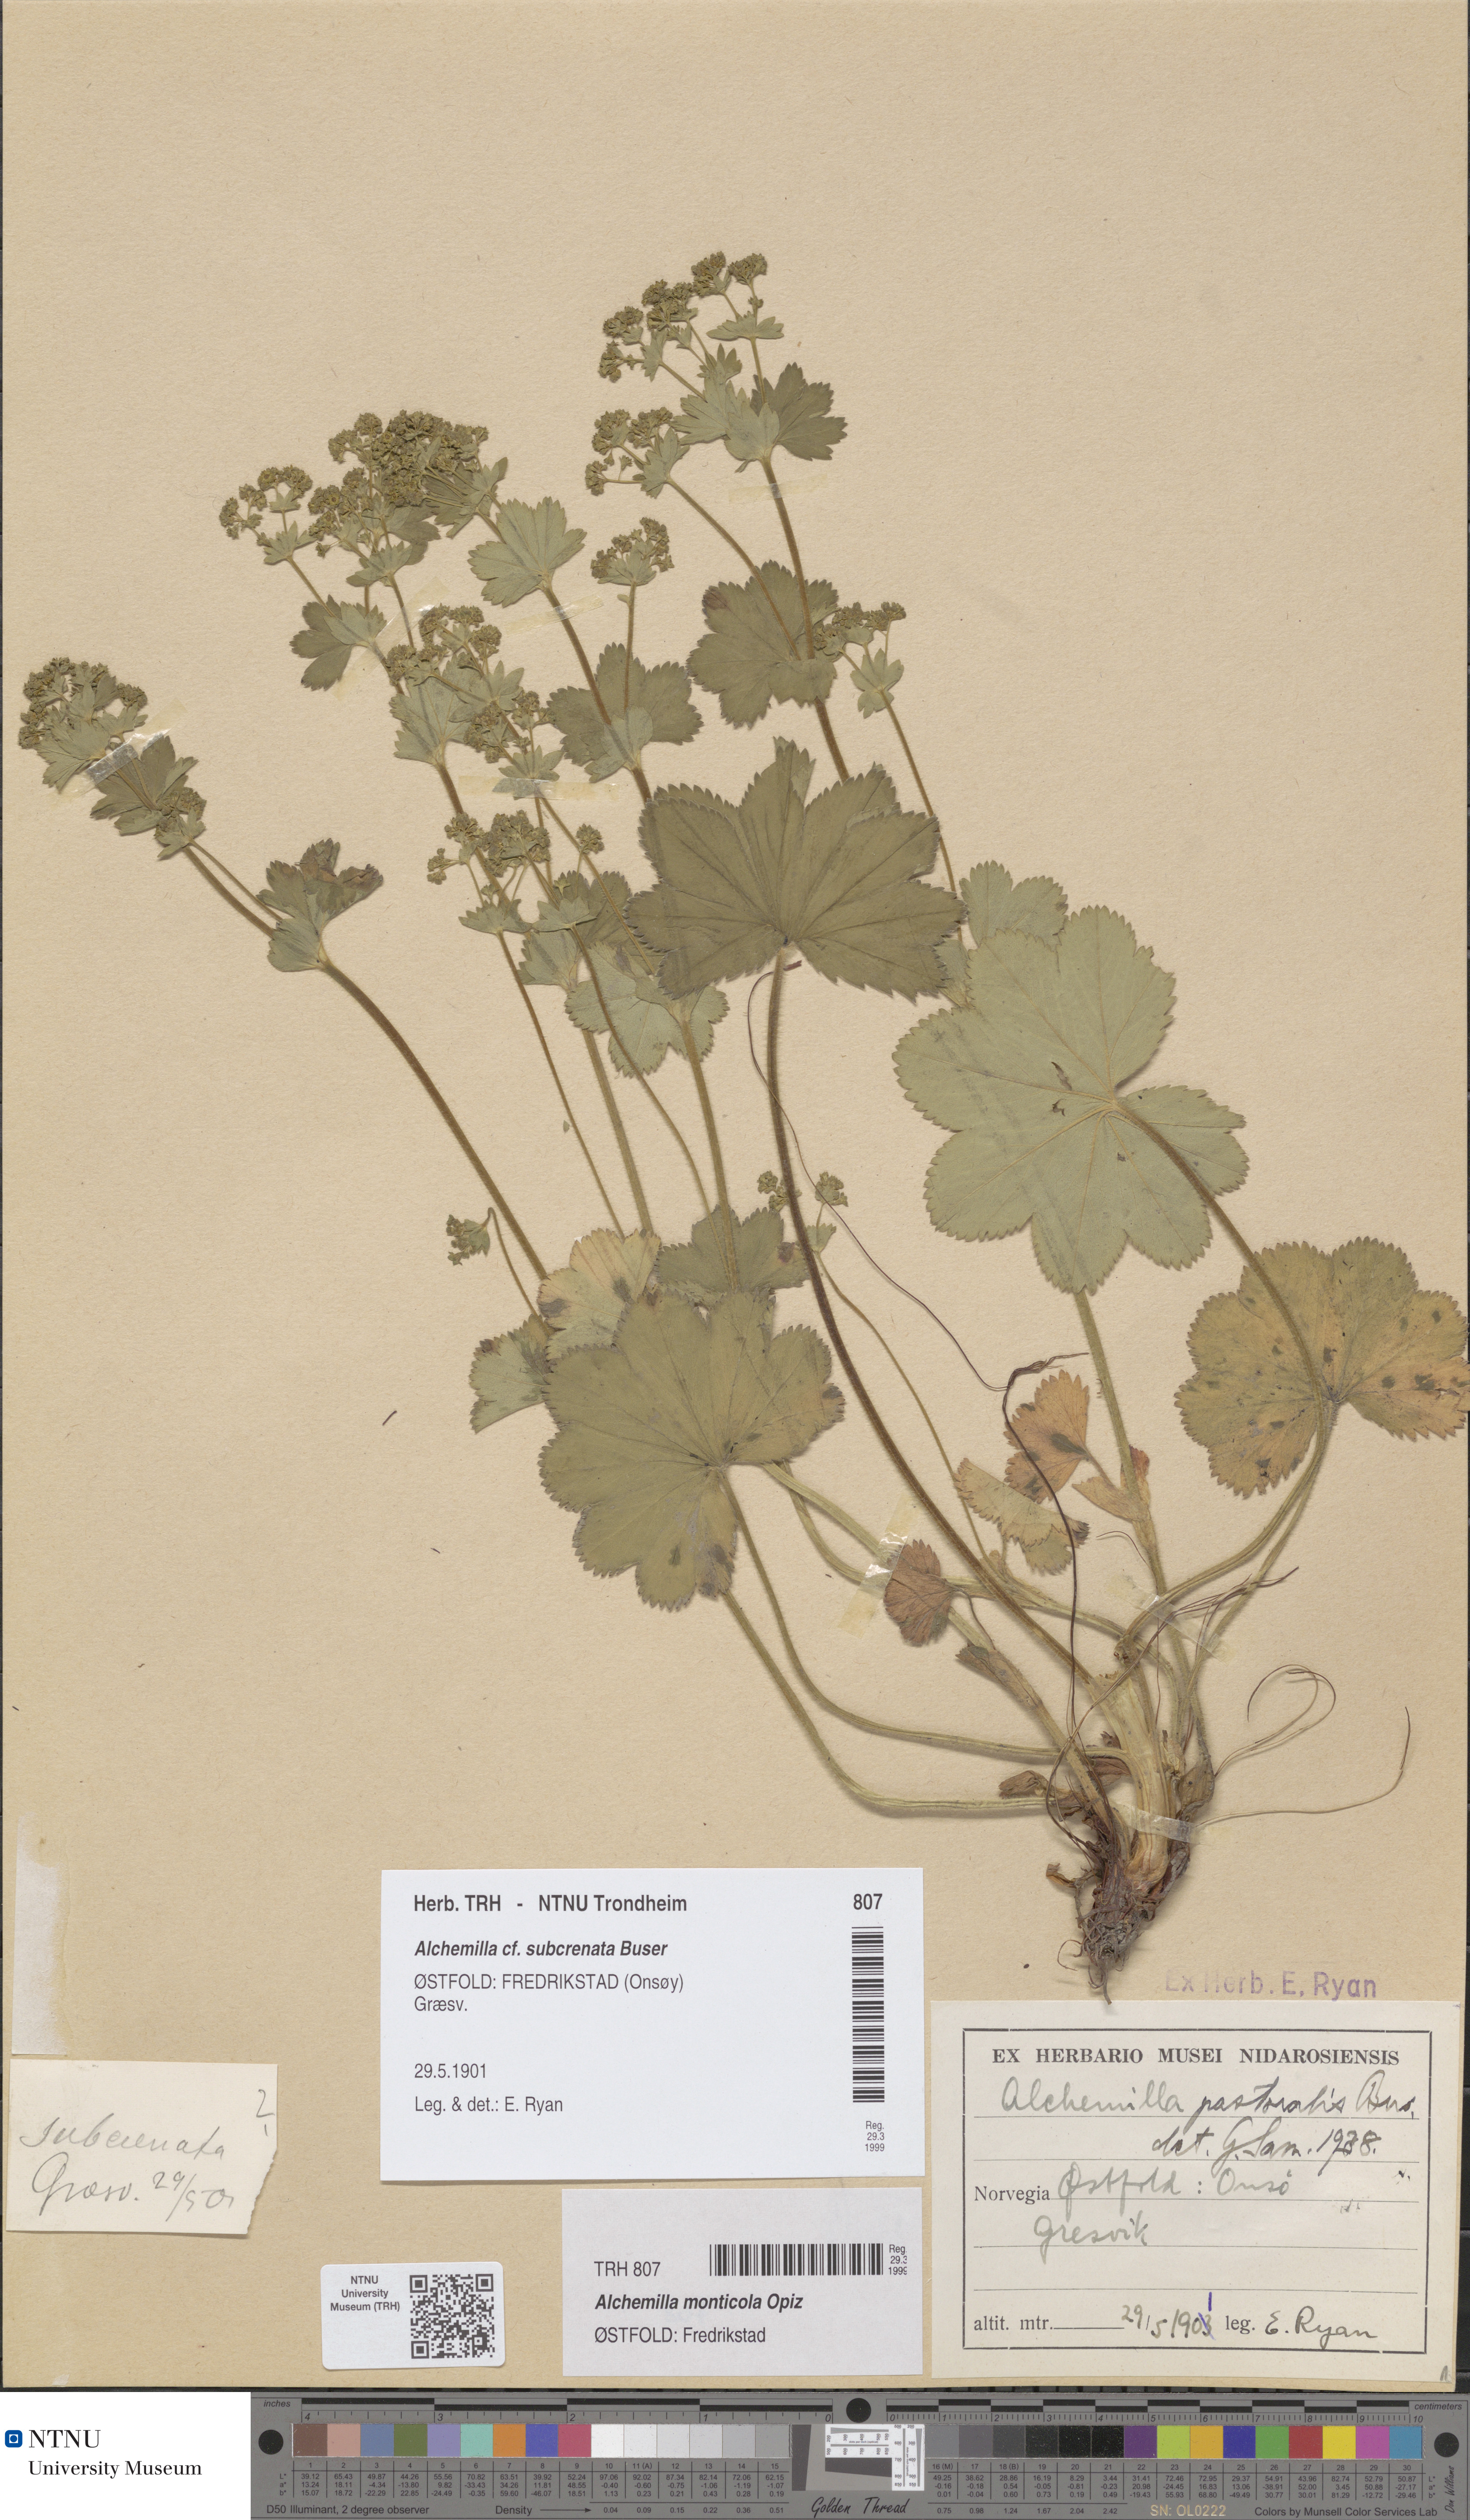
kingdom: Plantae
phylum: Tracheophyta
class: Magnoliopsida
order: Rosales
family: Rosaceae
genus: Alchemilla
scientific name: Alchemilla monticola
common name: Hairy lady's mantle
